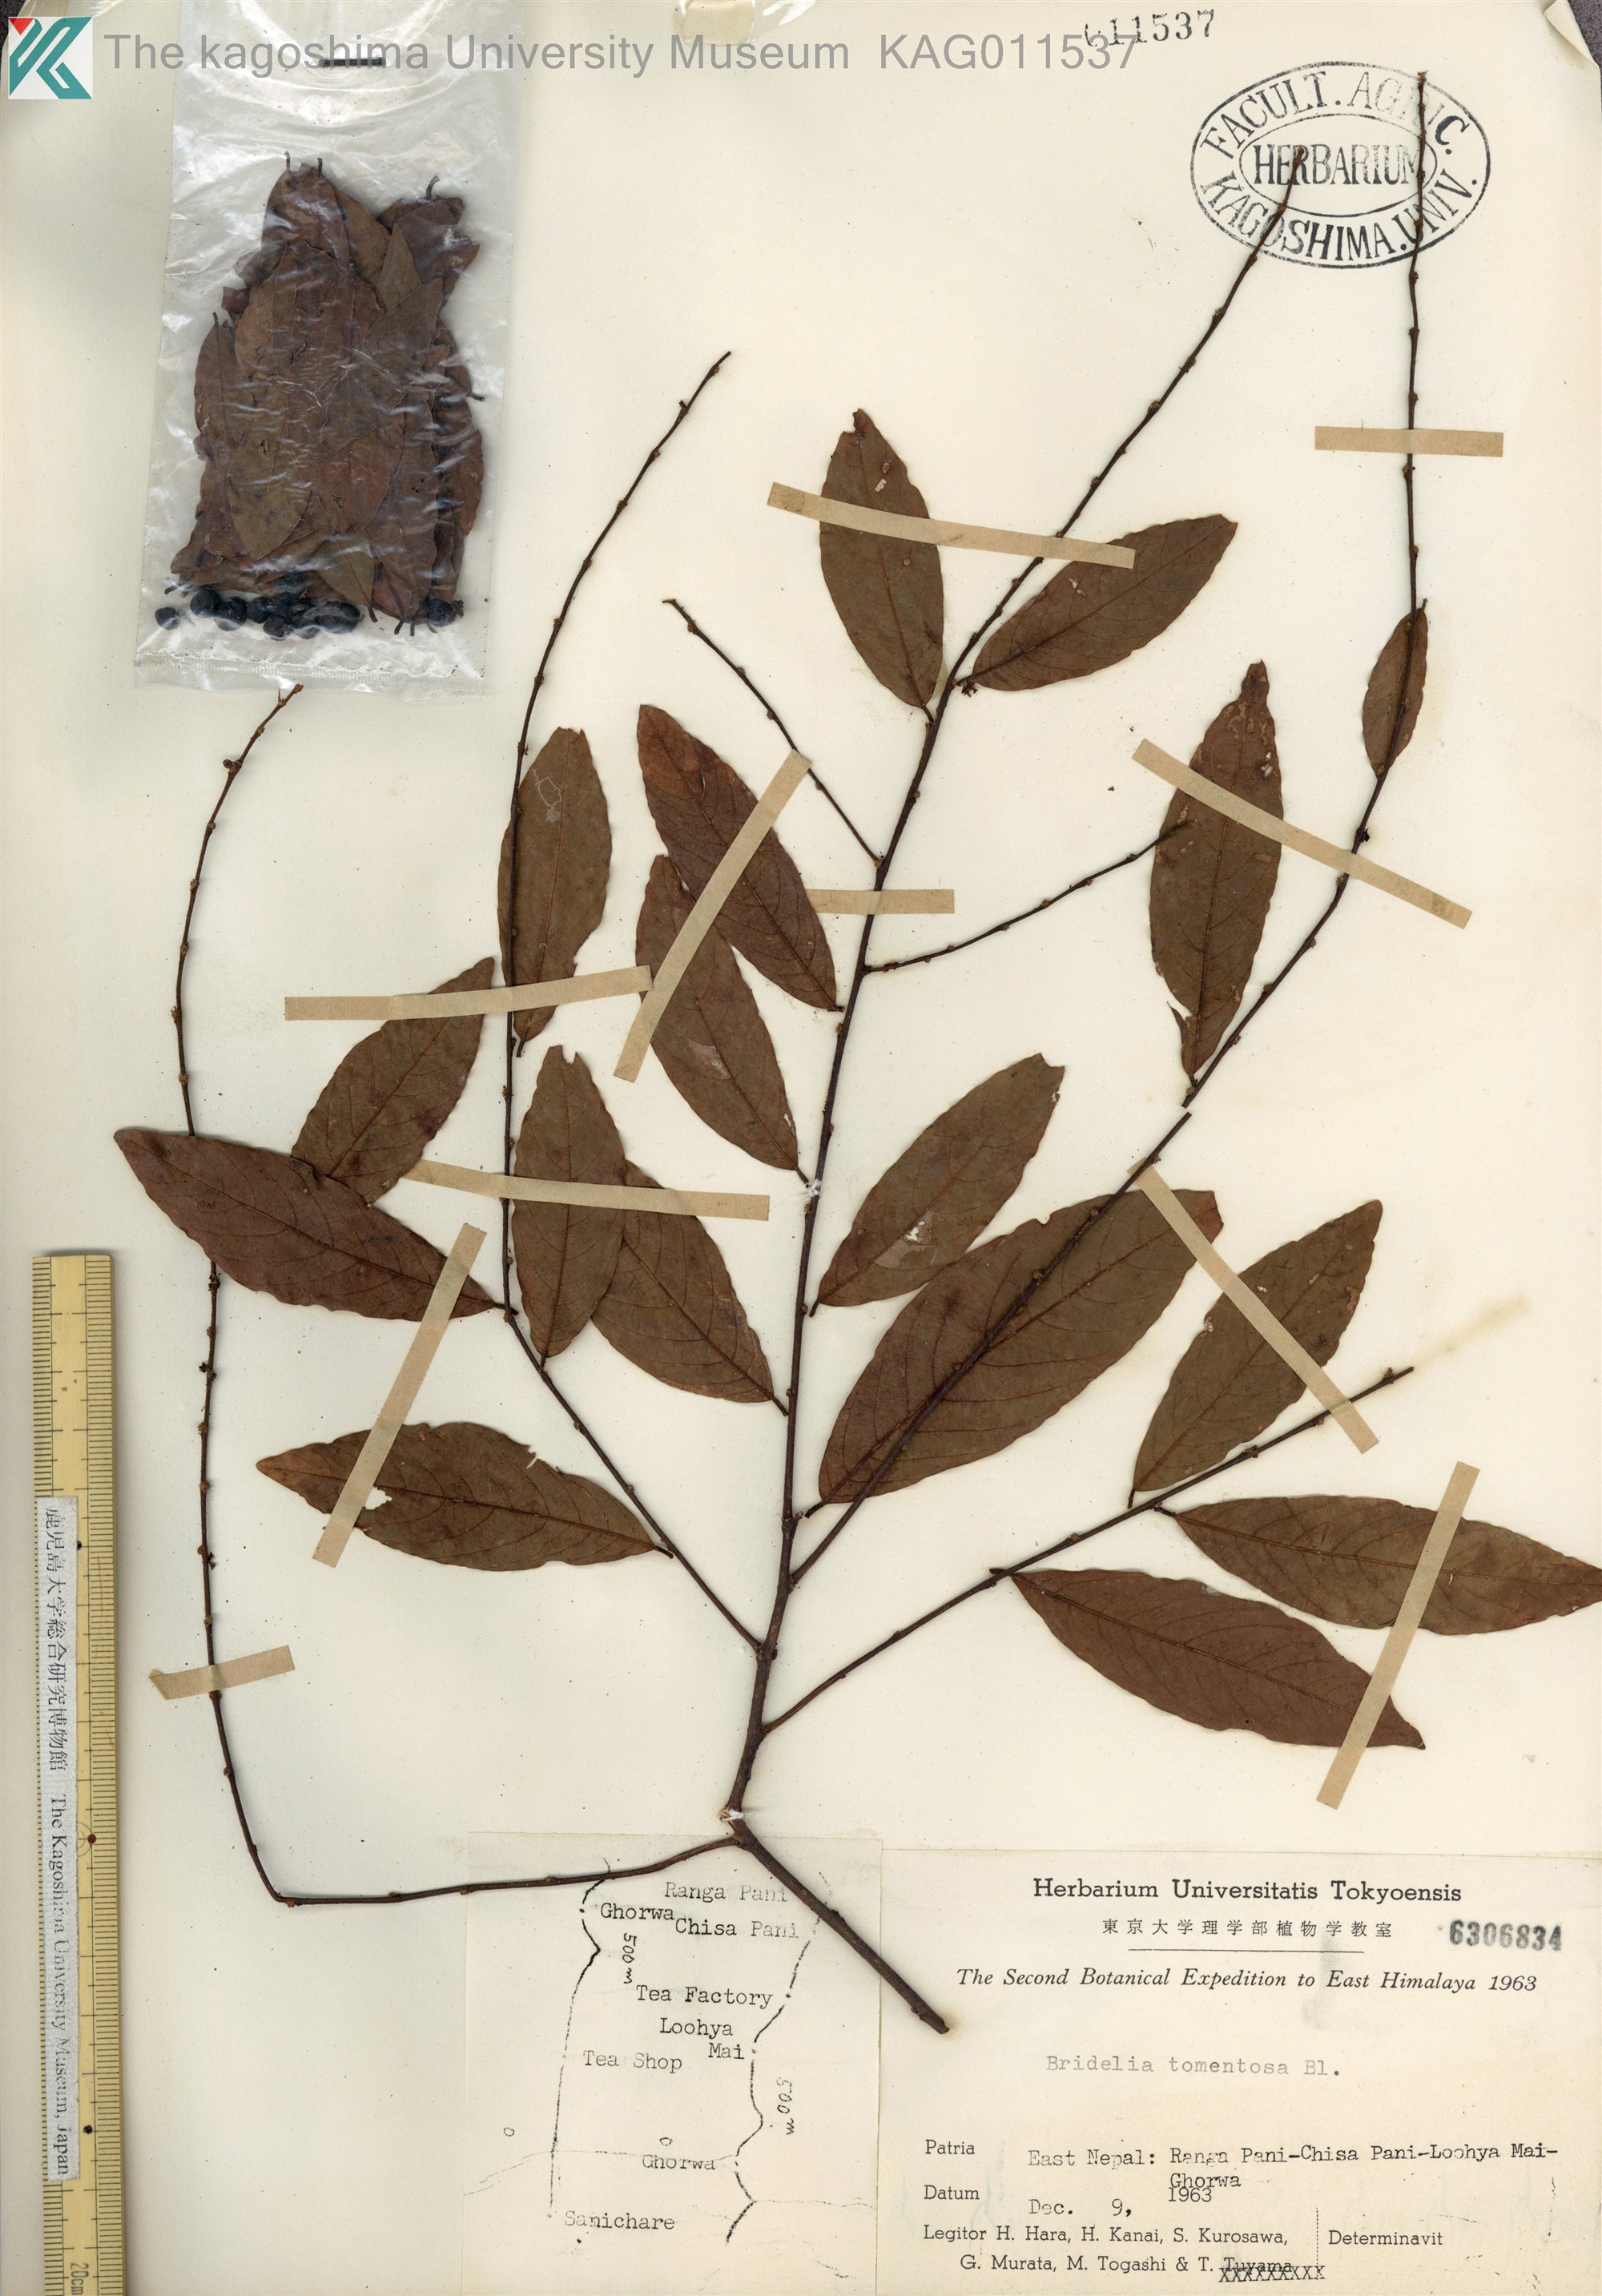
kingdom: Plantae
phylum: Tracheophyta
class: Magnoliopsida
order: Malpighiales
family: Phyllanthaceae
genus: Bridelia
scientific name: Bridelia tomentosa
